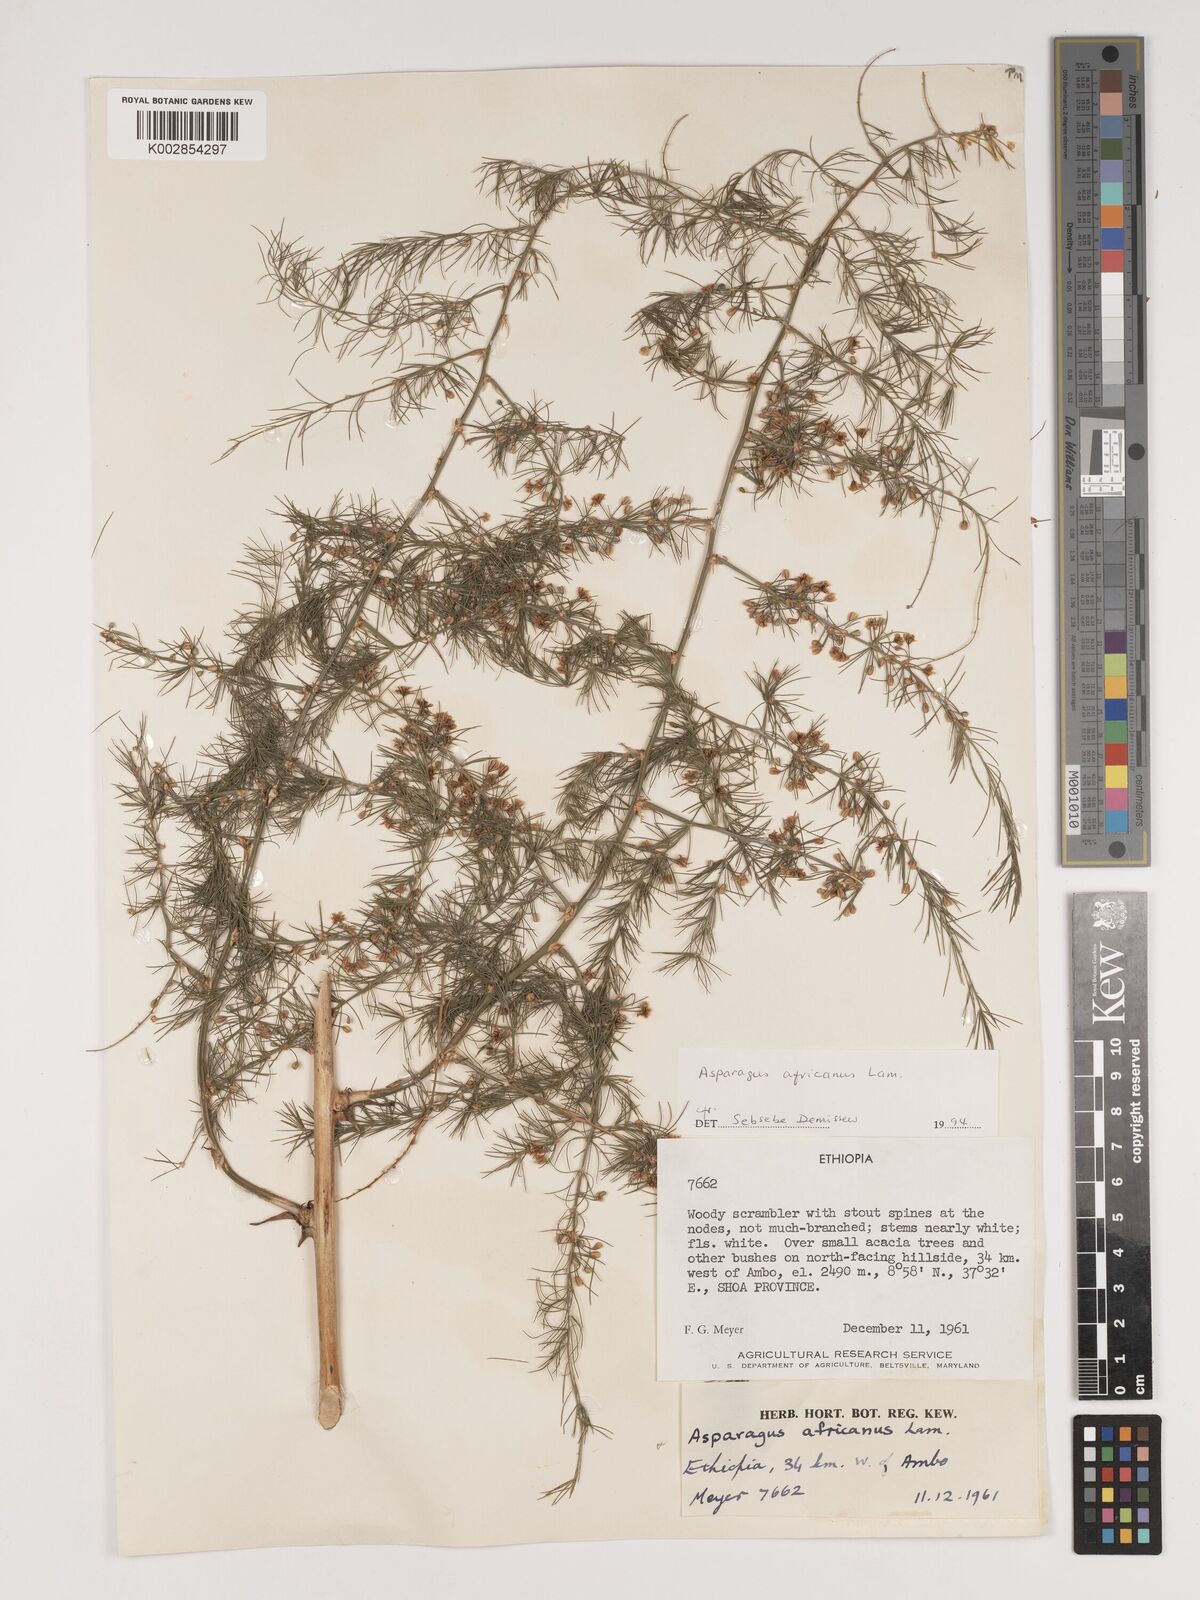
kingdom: Plantae
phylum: Tracheophyta
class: Liliopsida
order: Asparagales
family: Asparagaceae
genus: Asparagus
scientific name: Asparagus africanus
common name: Asparagus-fern
